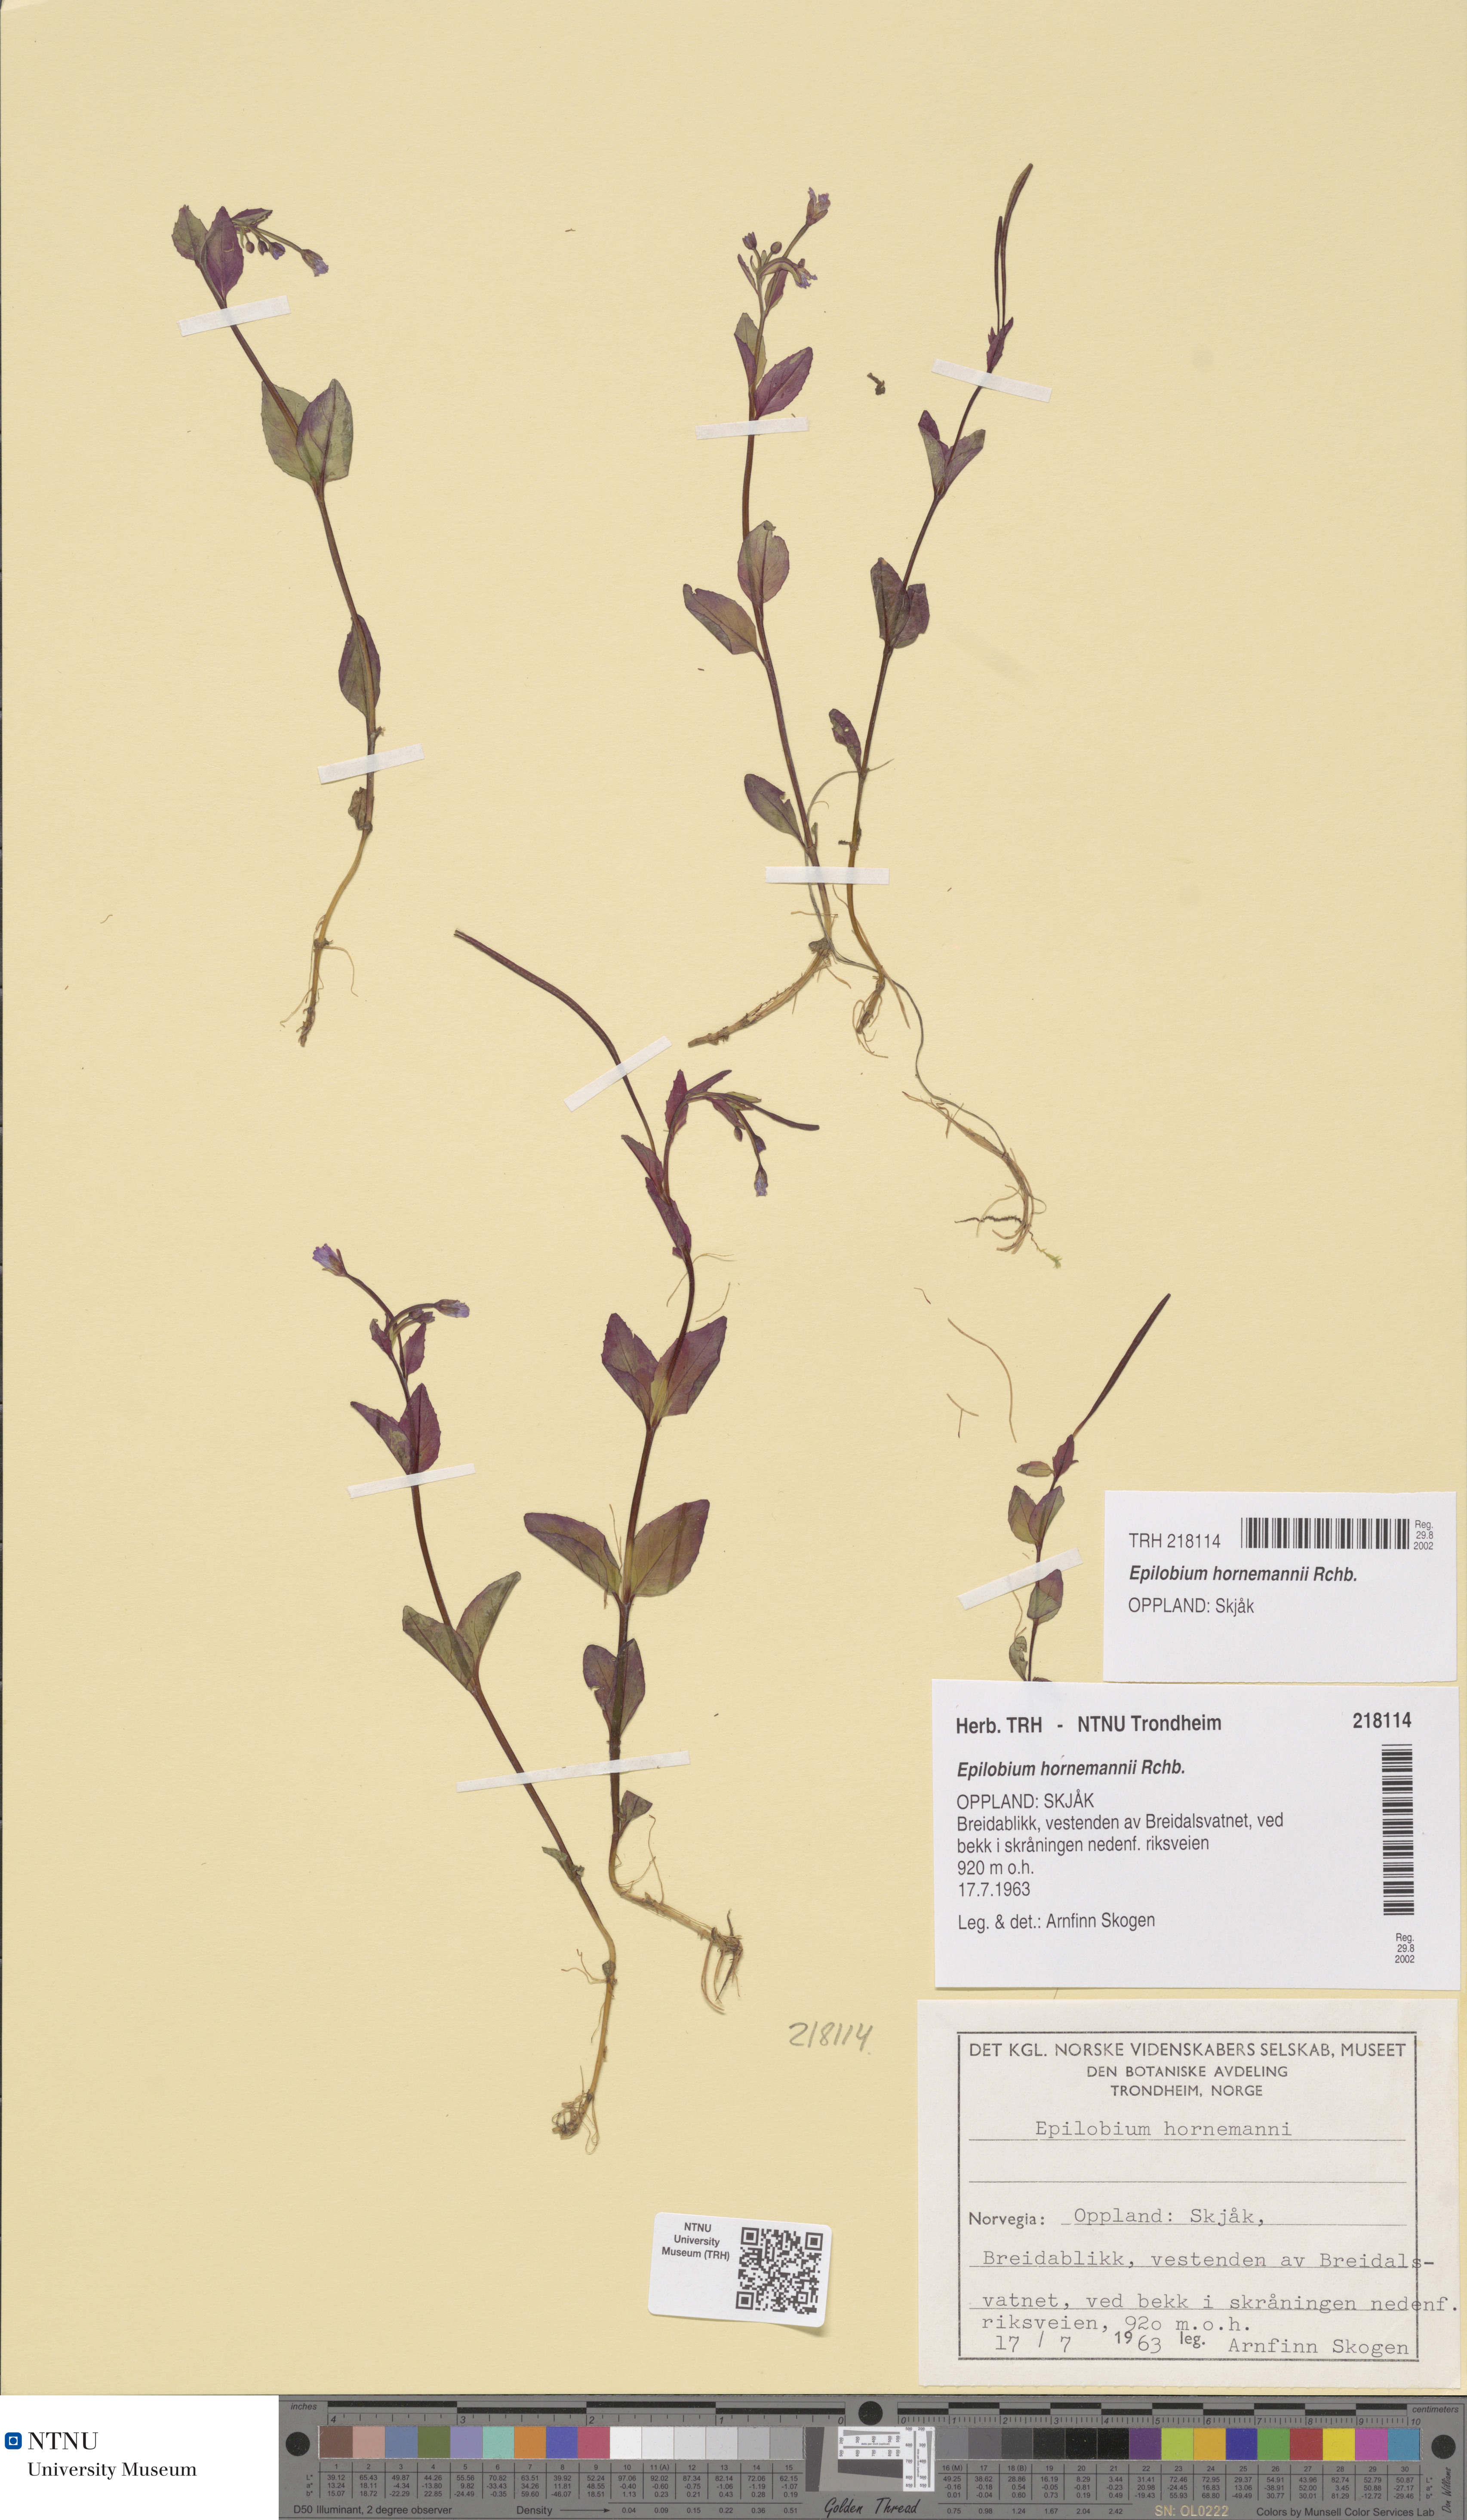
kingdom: Plantae
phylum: Tracheophyta
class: Magnoliopsida
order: Myrtales
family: Onagraceae
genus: Epilobium
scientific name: Epilobium hornemannii
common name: Hornemann's willowherb
